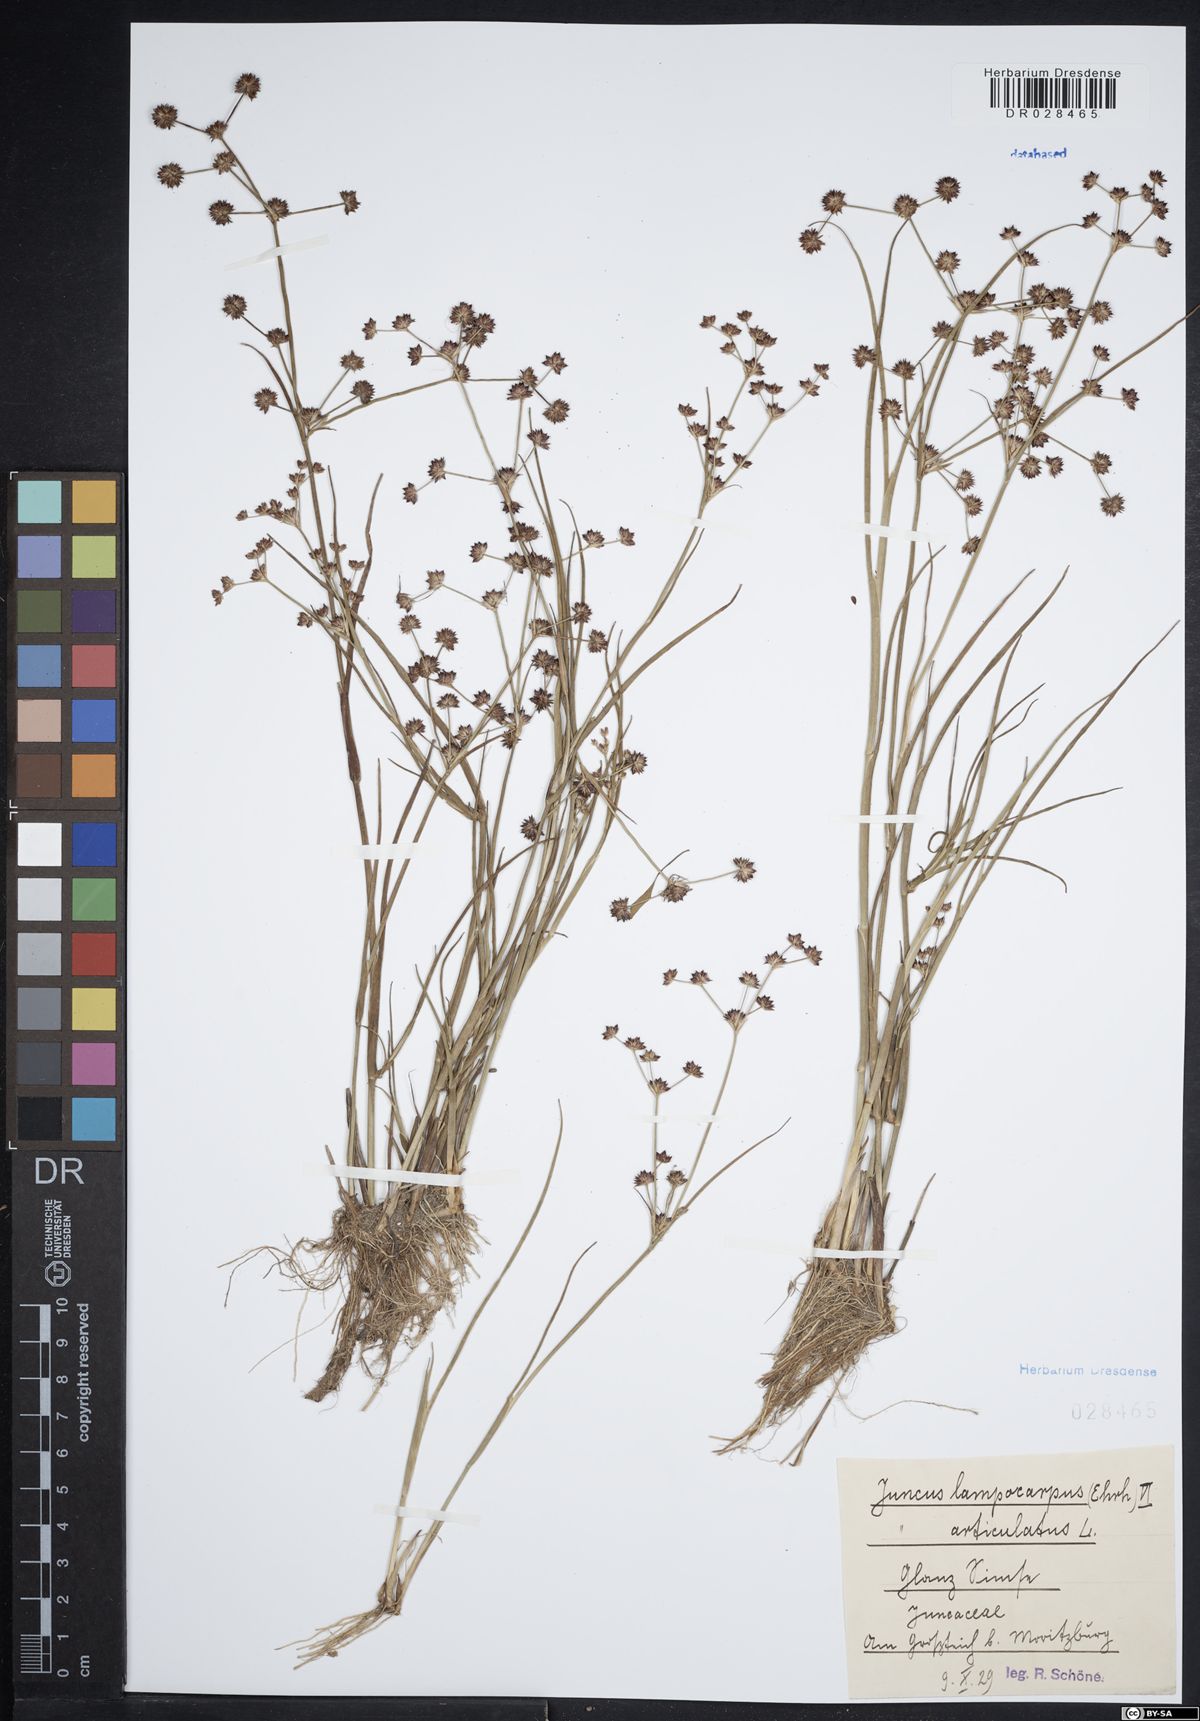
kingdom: Plantae
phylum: Tracheophyta
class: Liliopsida
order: Poales
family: Juncaceae
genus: Juncus
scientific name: Juncus articulatus
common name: Jointed rush
